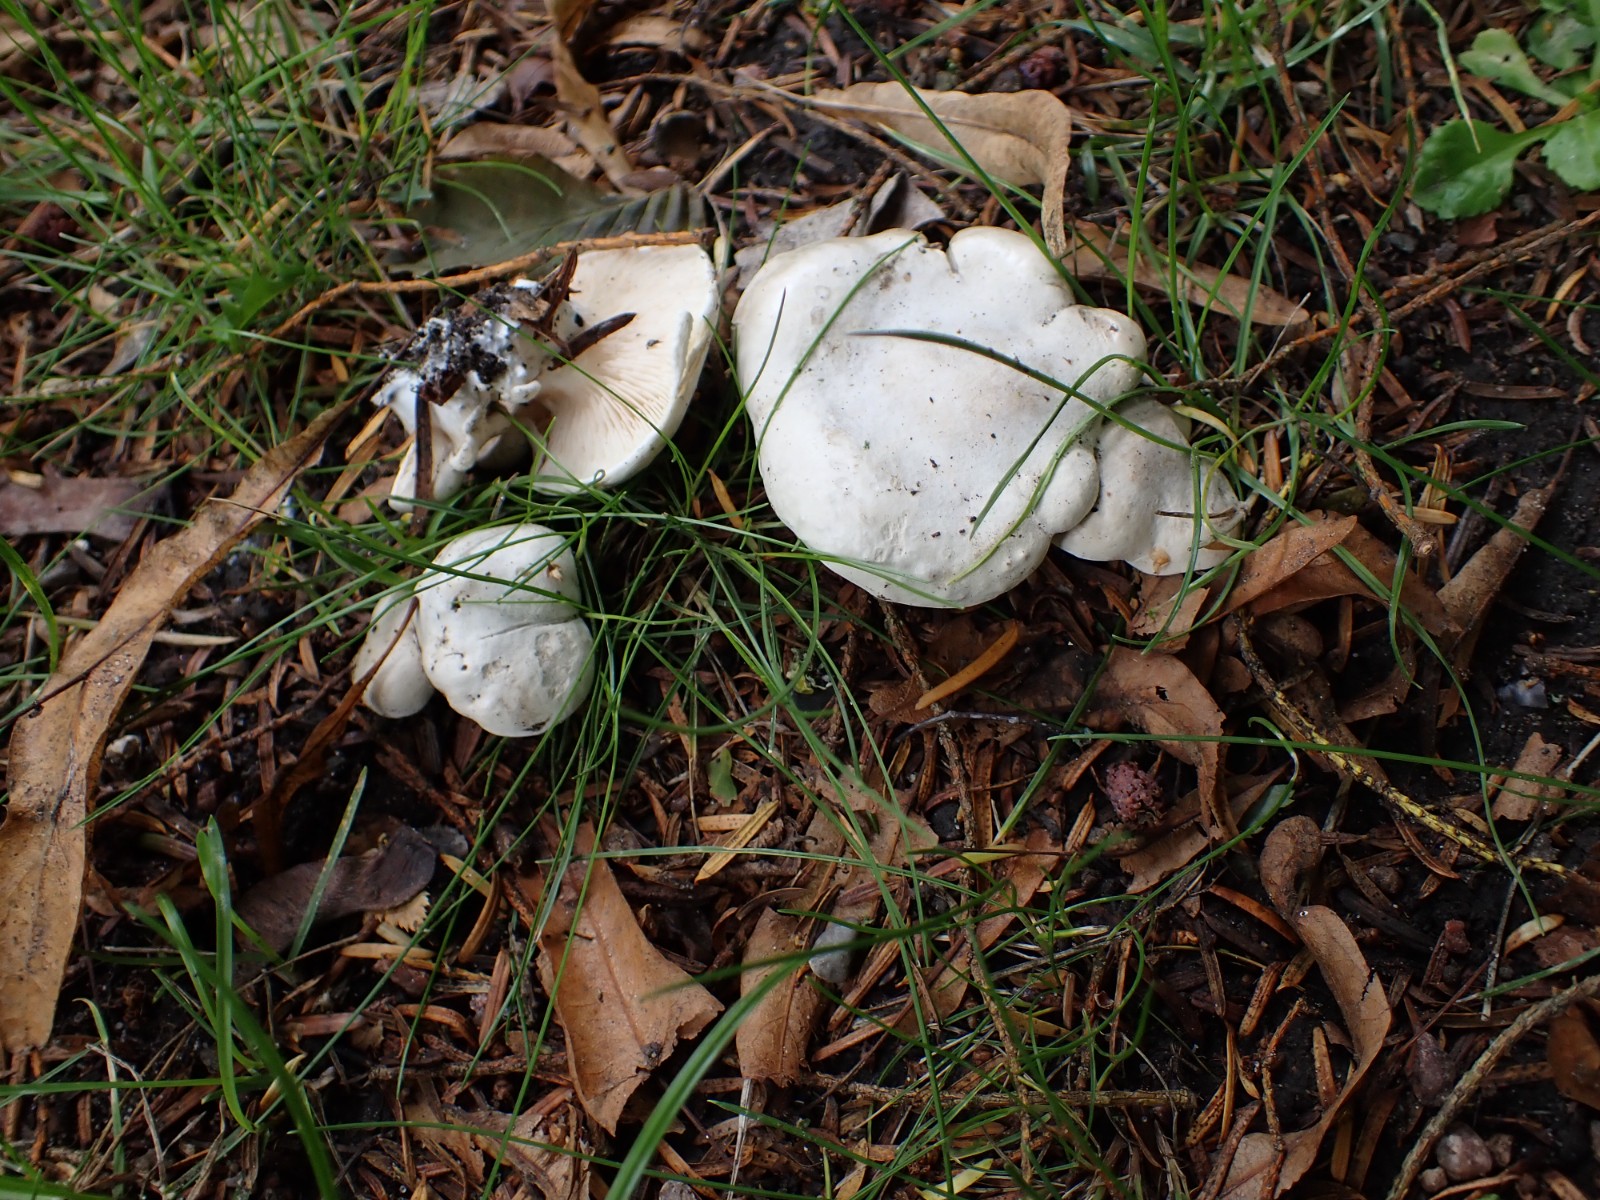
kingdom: Fungi
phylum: Basidiomycota
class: Agaricomycetes
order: Agaricales
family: Entolomataceae
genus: Clitopilus
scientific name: Clitopilus prunulus
